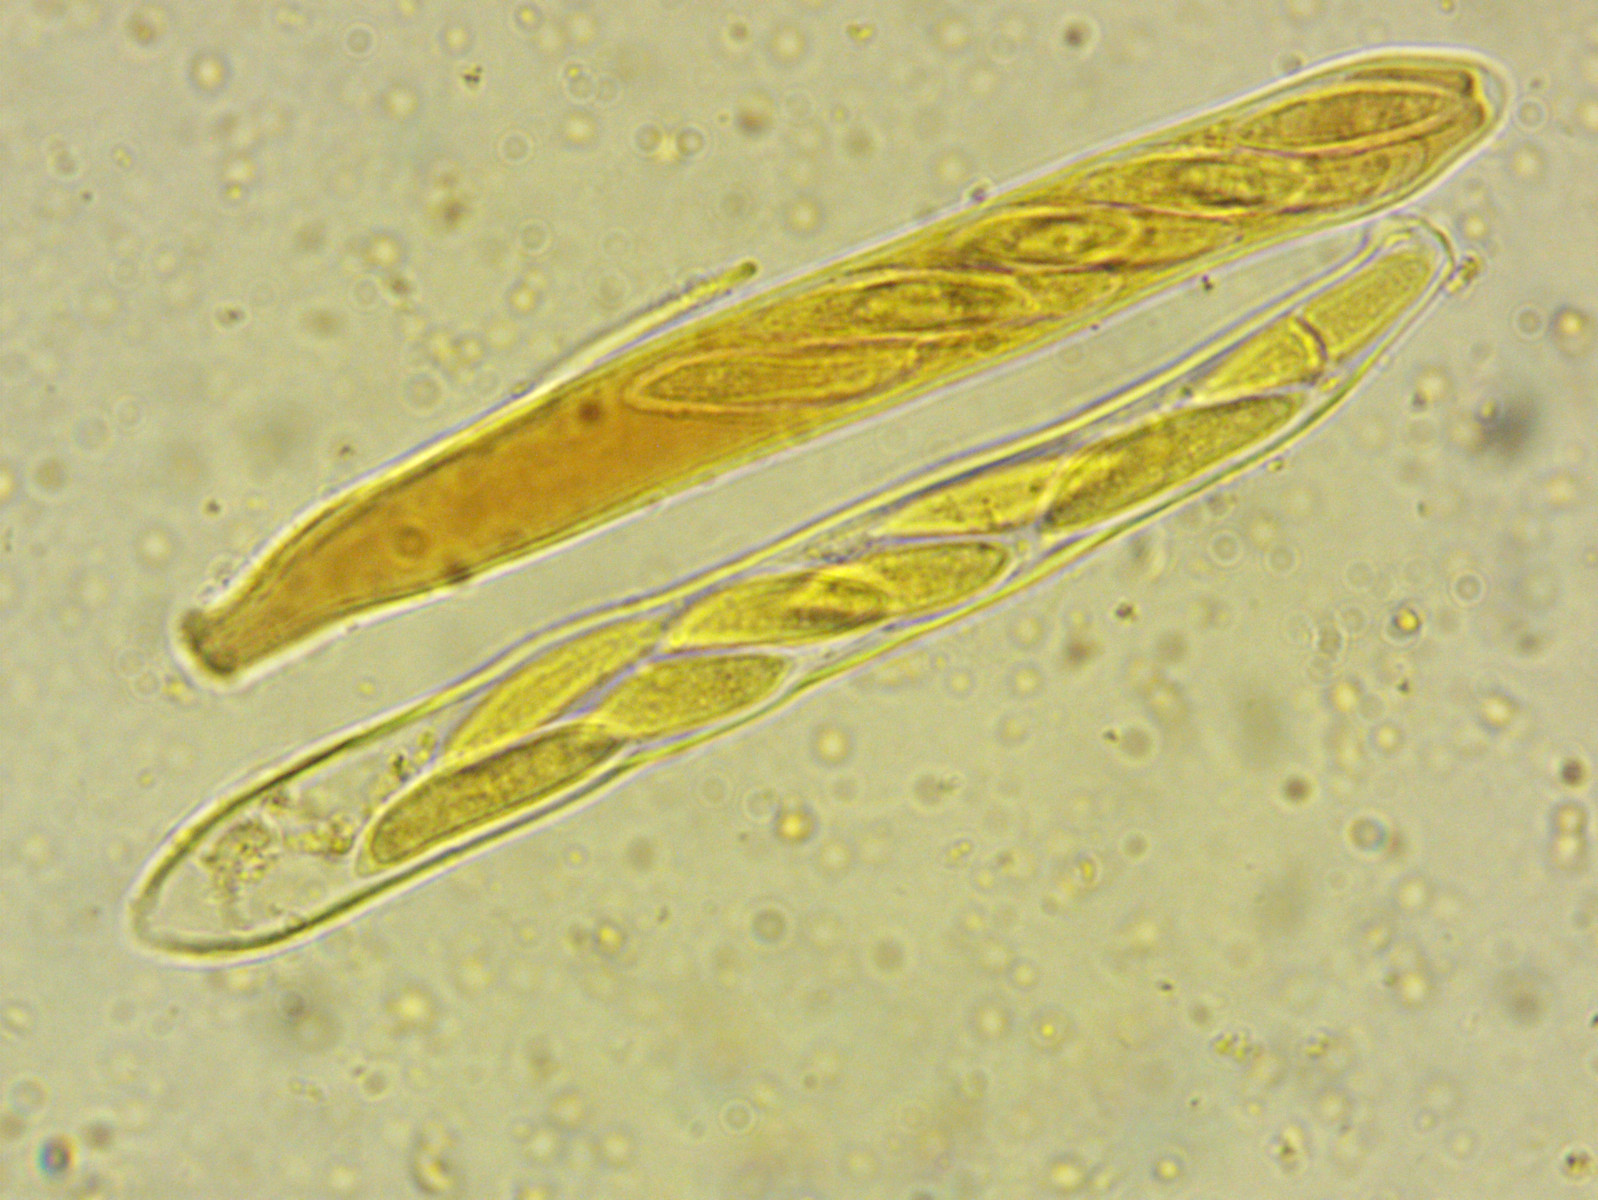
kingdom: Fungi
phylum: Ascomycota
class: Leotiomycetes
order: Helotiales
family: Tricladiaceae
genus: Cudoniella
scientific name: Cudoniella acicularis
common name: ege-dyndskive
